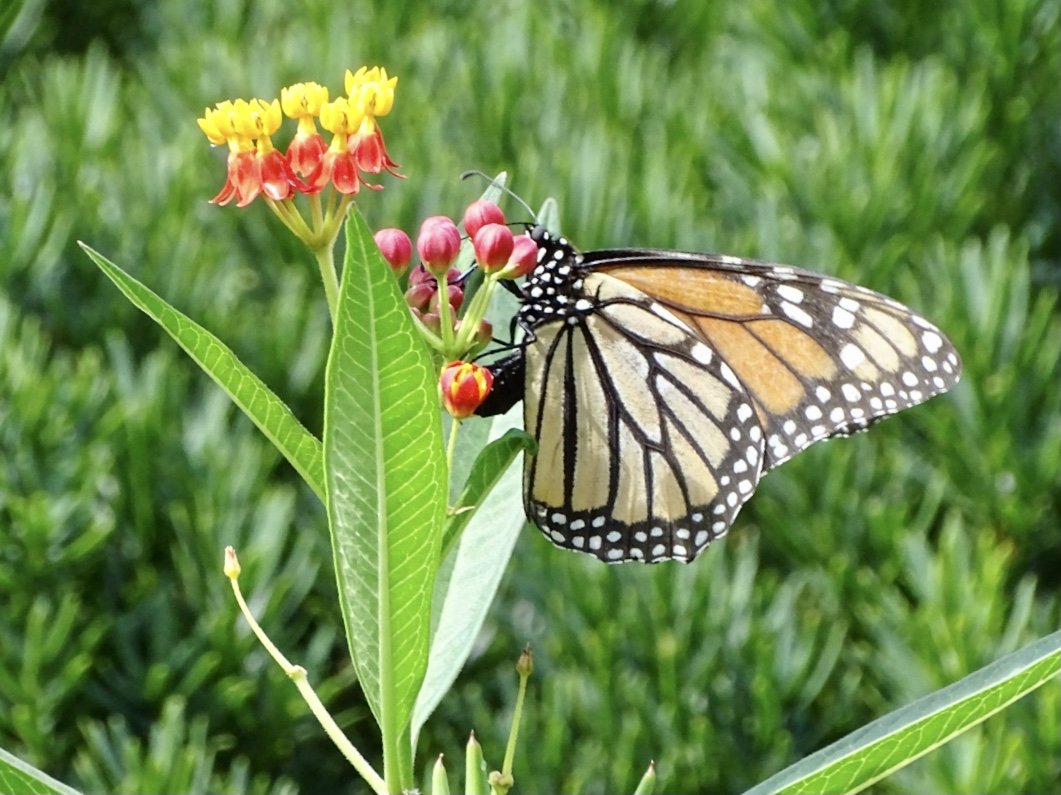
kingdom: Animalia
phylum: Arthropoda
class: Insecta
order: Lepidoptera
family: Nymphalidae
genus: Danaus
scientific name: Danaus plexippus
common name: Monarch
